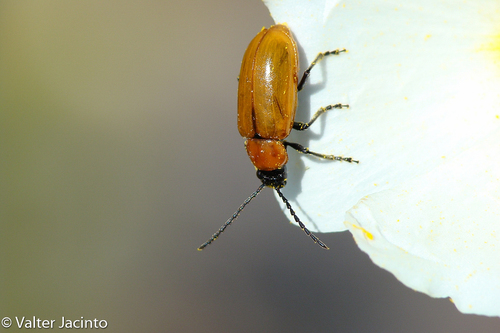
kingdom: Animalia
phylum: Arthropoda
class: Insecta
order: Coleoptera
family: Chrysomelidae
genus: Exosoma
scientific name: Exosoma lusitanicum
